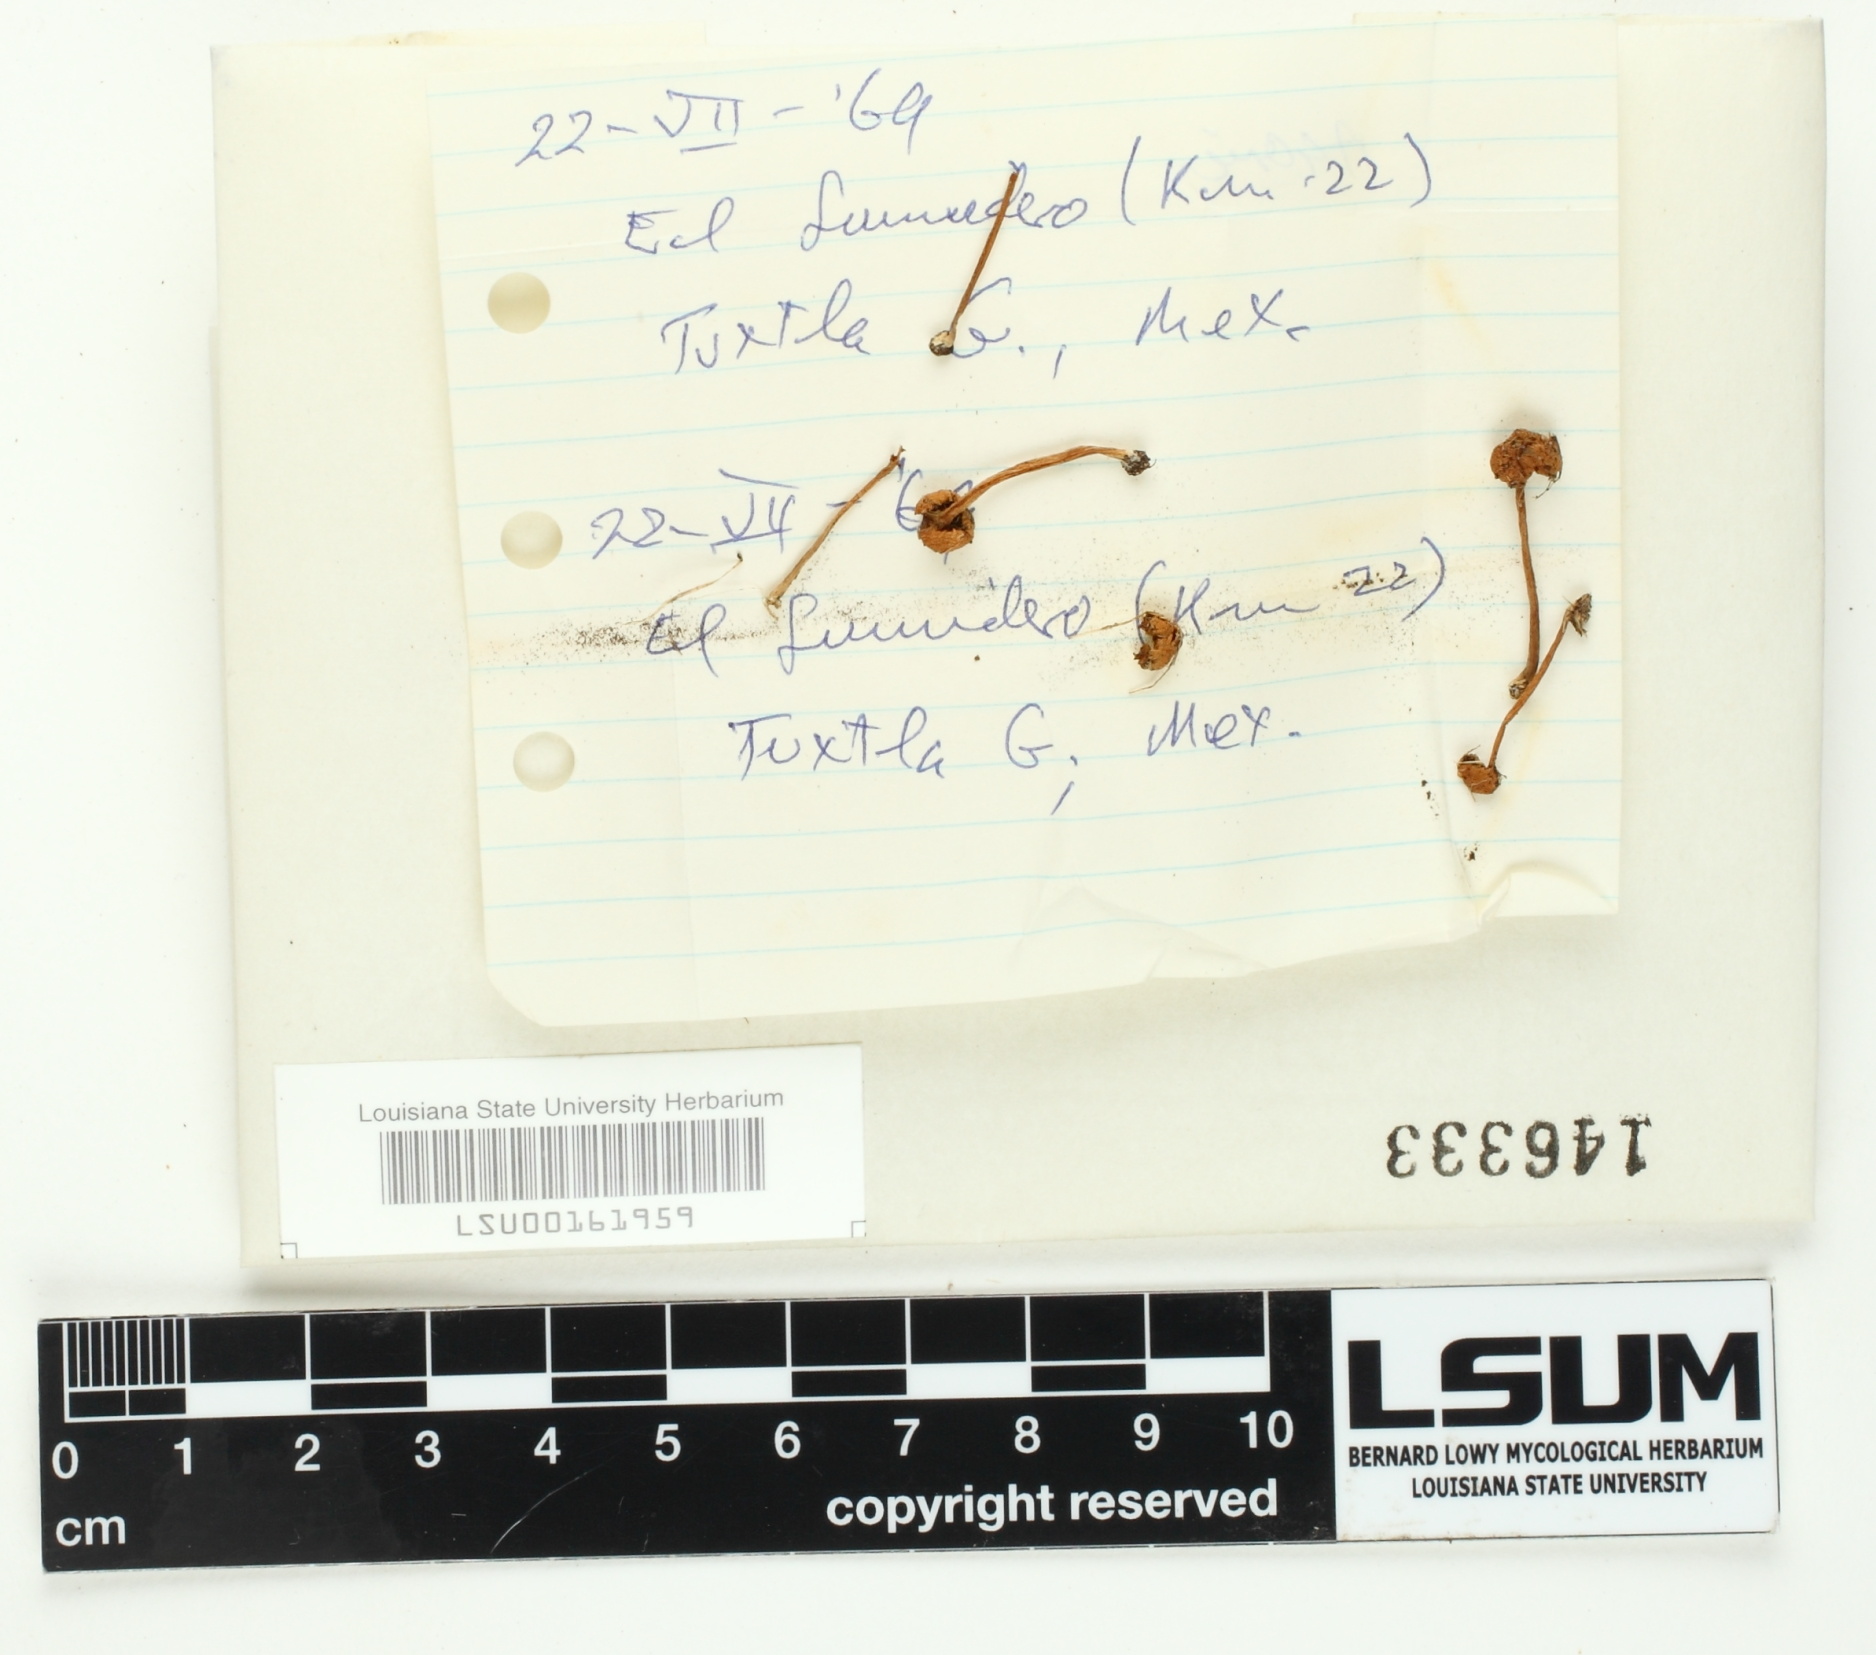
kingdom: Fungi
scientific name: Fungi
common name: Fungi
